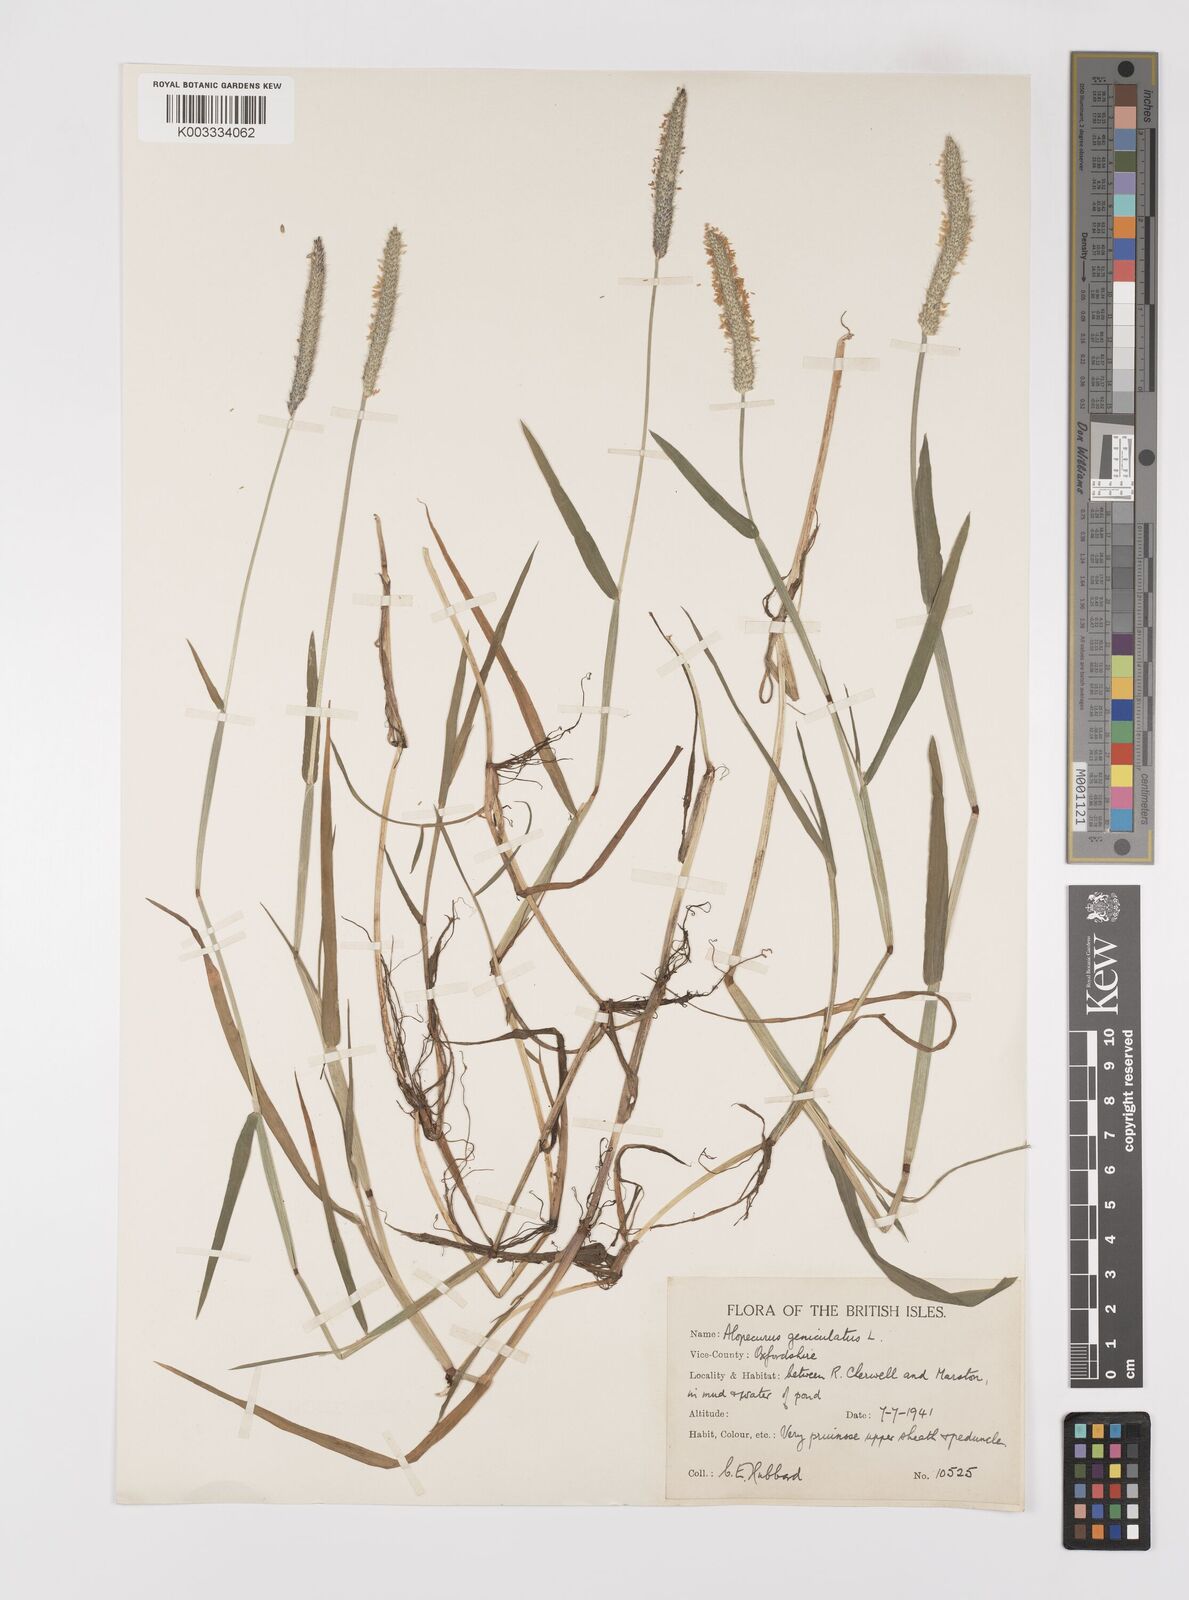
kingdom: Plantae
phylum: Tracheophyta
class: Liliopsida
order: Poales
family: Poaceae
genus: Alopecurus
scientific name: Alopecurus geniculatus
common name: Water foxtail
